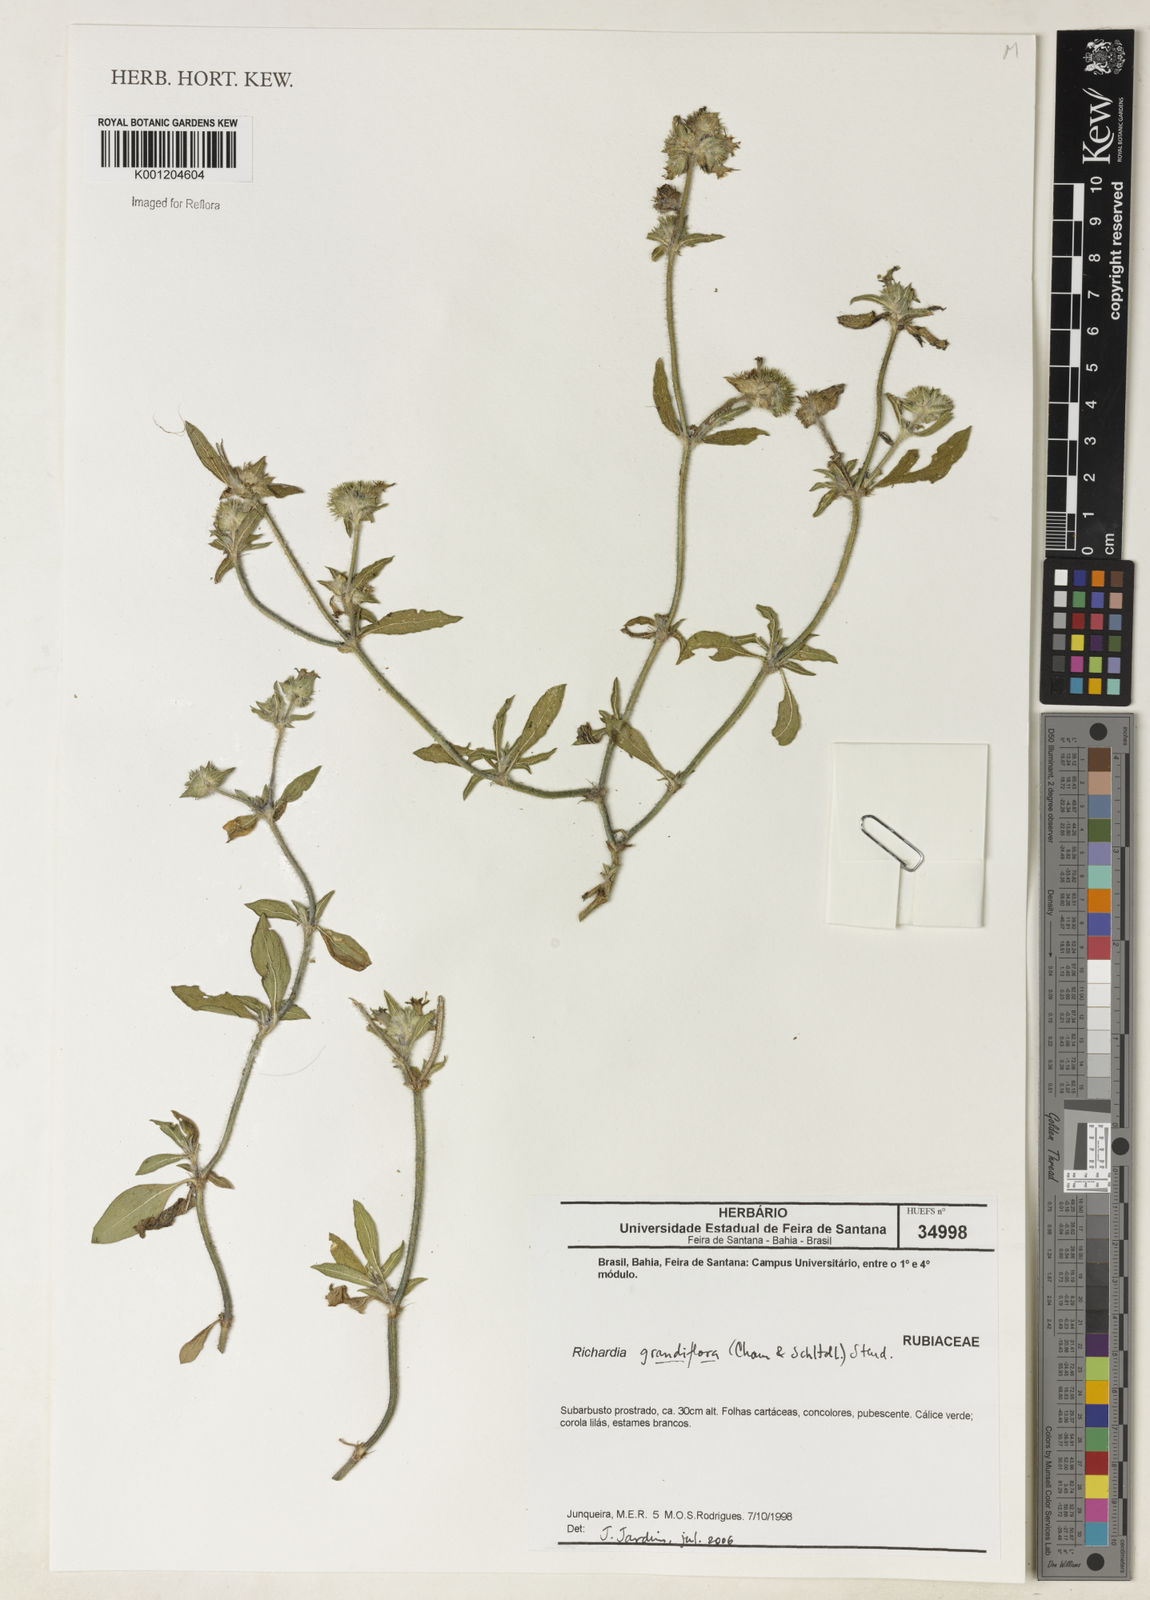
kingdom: Plantae
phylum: Tracheophyta
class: Magnoliopsida
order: Gentianales
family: Rubiaceae
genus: Richardia
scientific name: Richardia grandiflora
